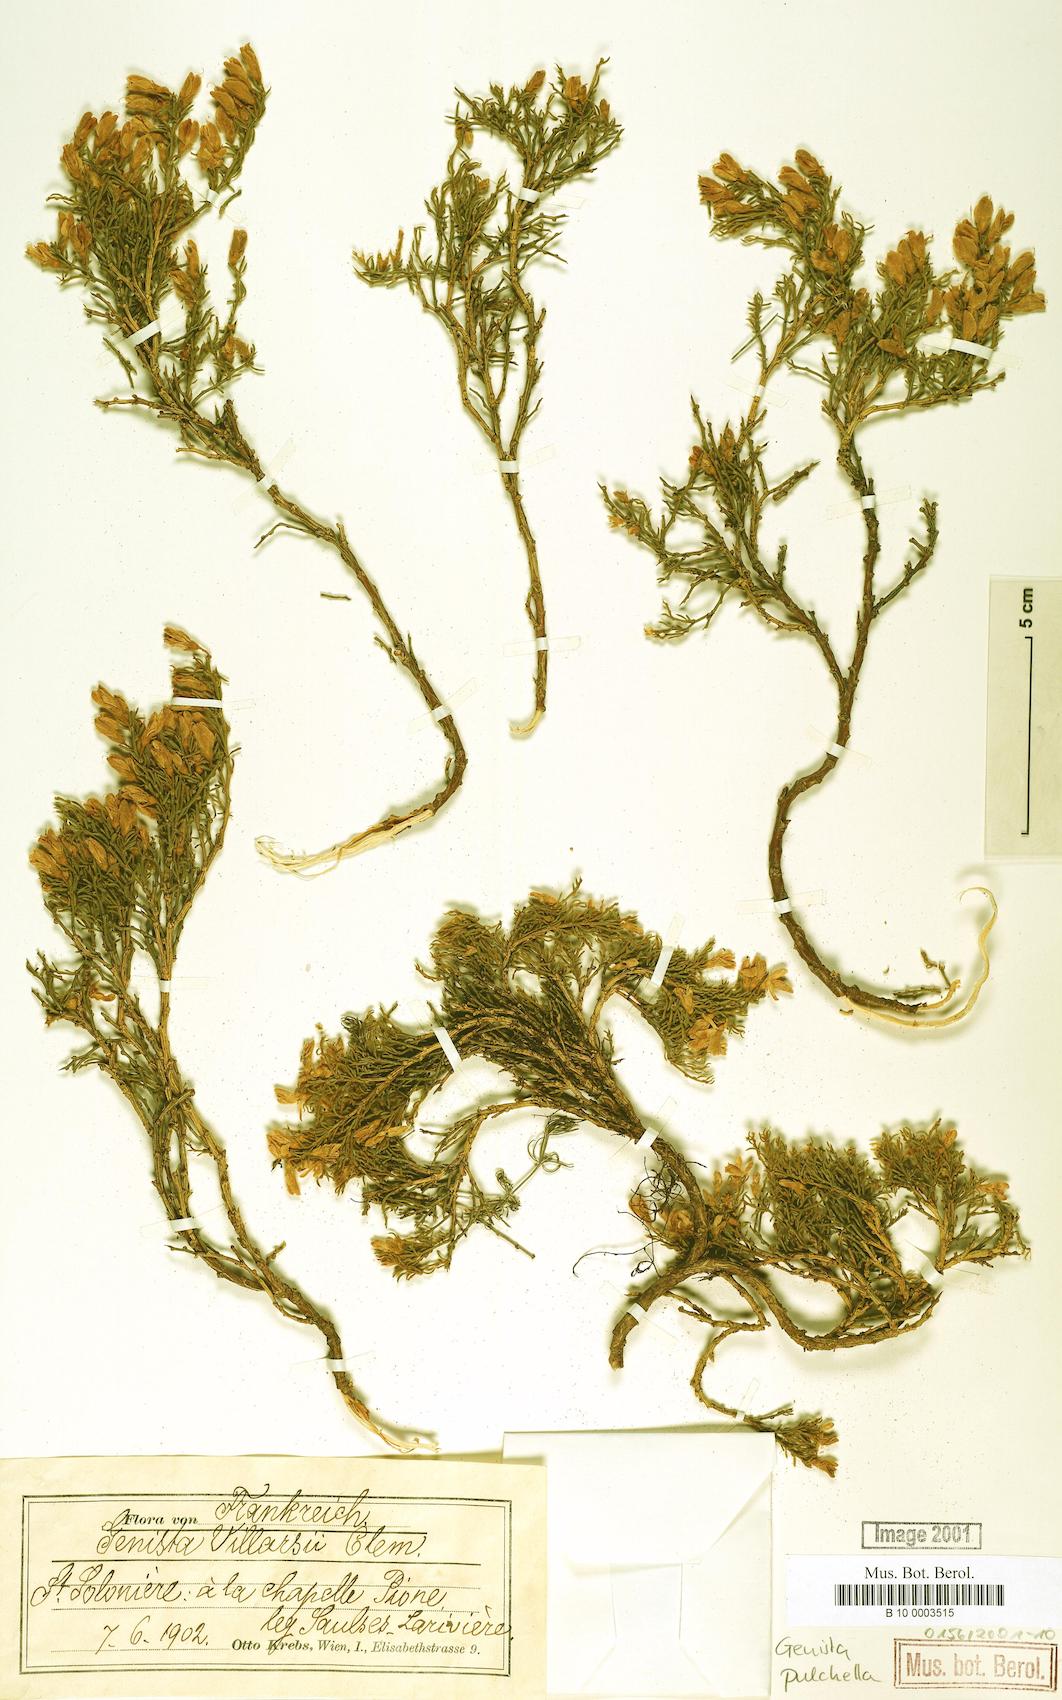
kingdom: Plantae
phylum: Tracheophyta
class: Magnoliopsida
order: Fabales
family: Fabaceae
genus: Genista
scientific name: Genista pulchella
